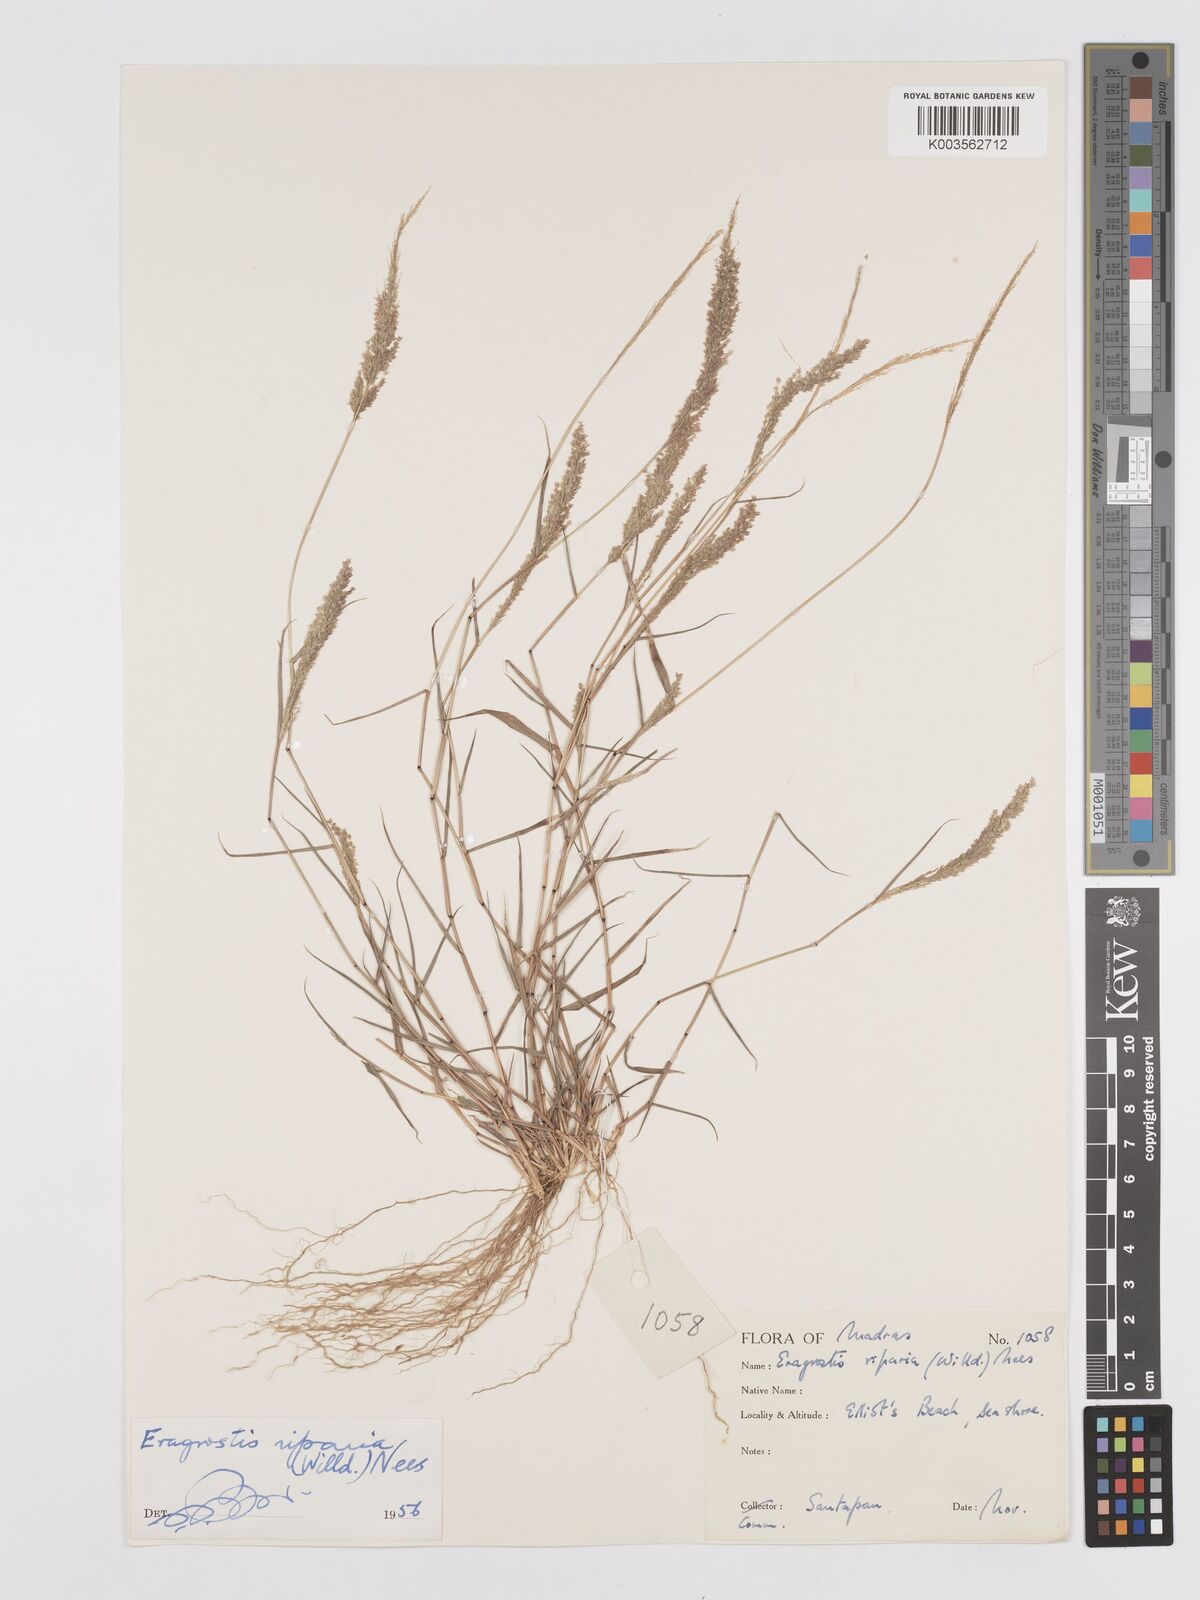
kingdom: Plantae
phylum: Tracheophyta
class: Liliopsida
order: Poales
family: Poaceae
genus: Eragrostis
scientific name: Eragrostis riparia
